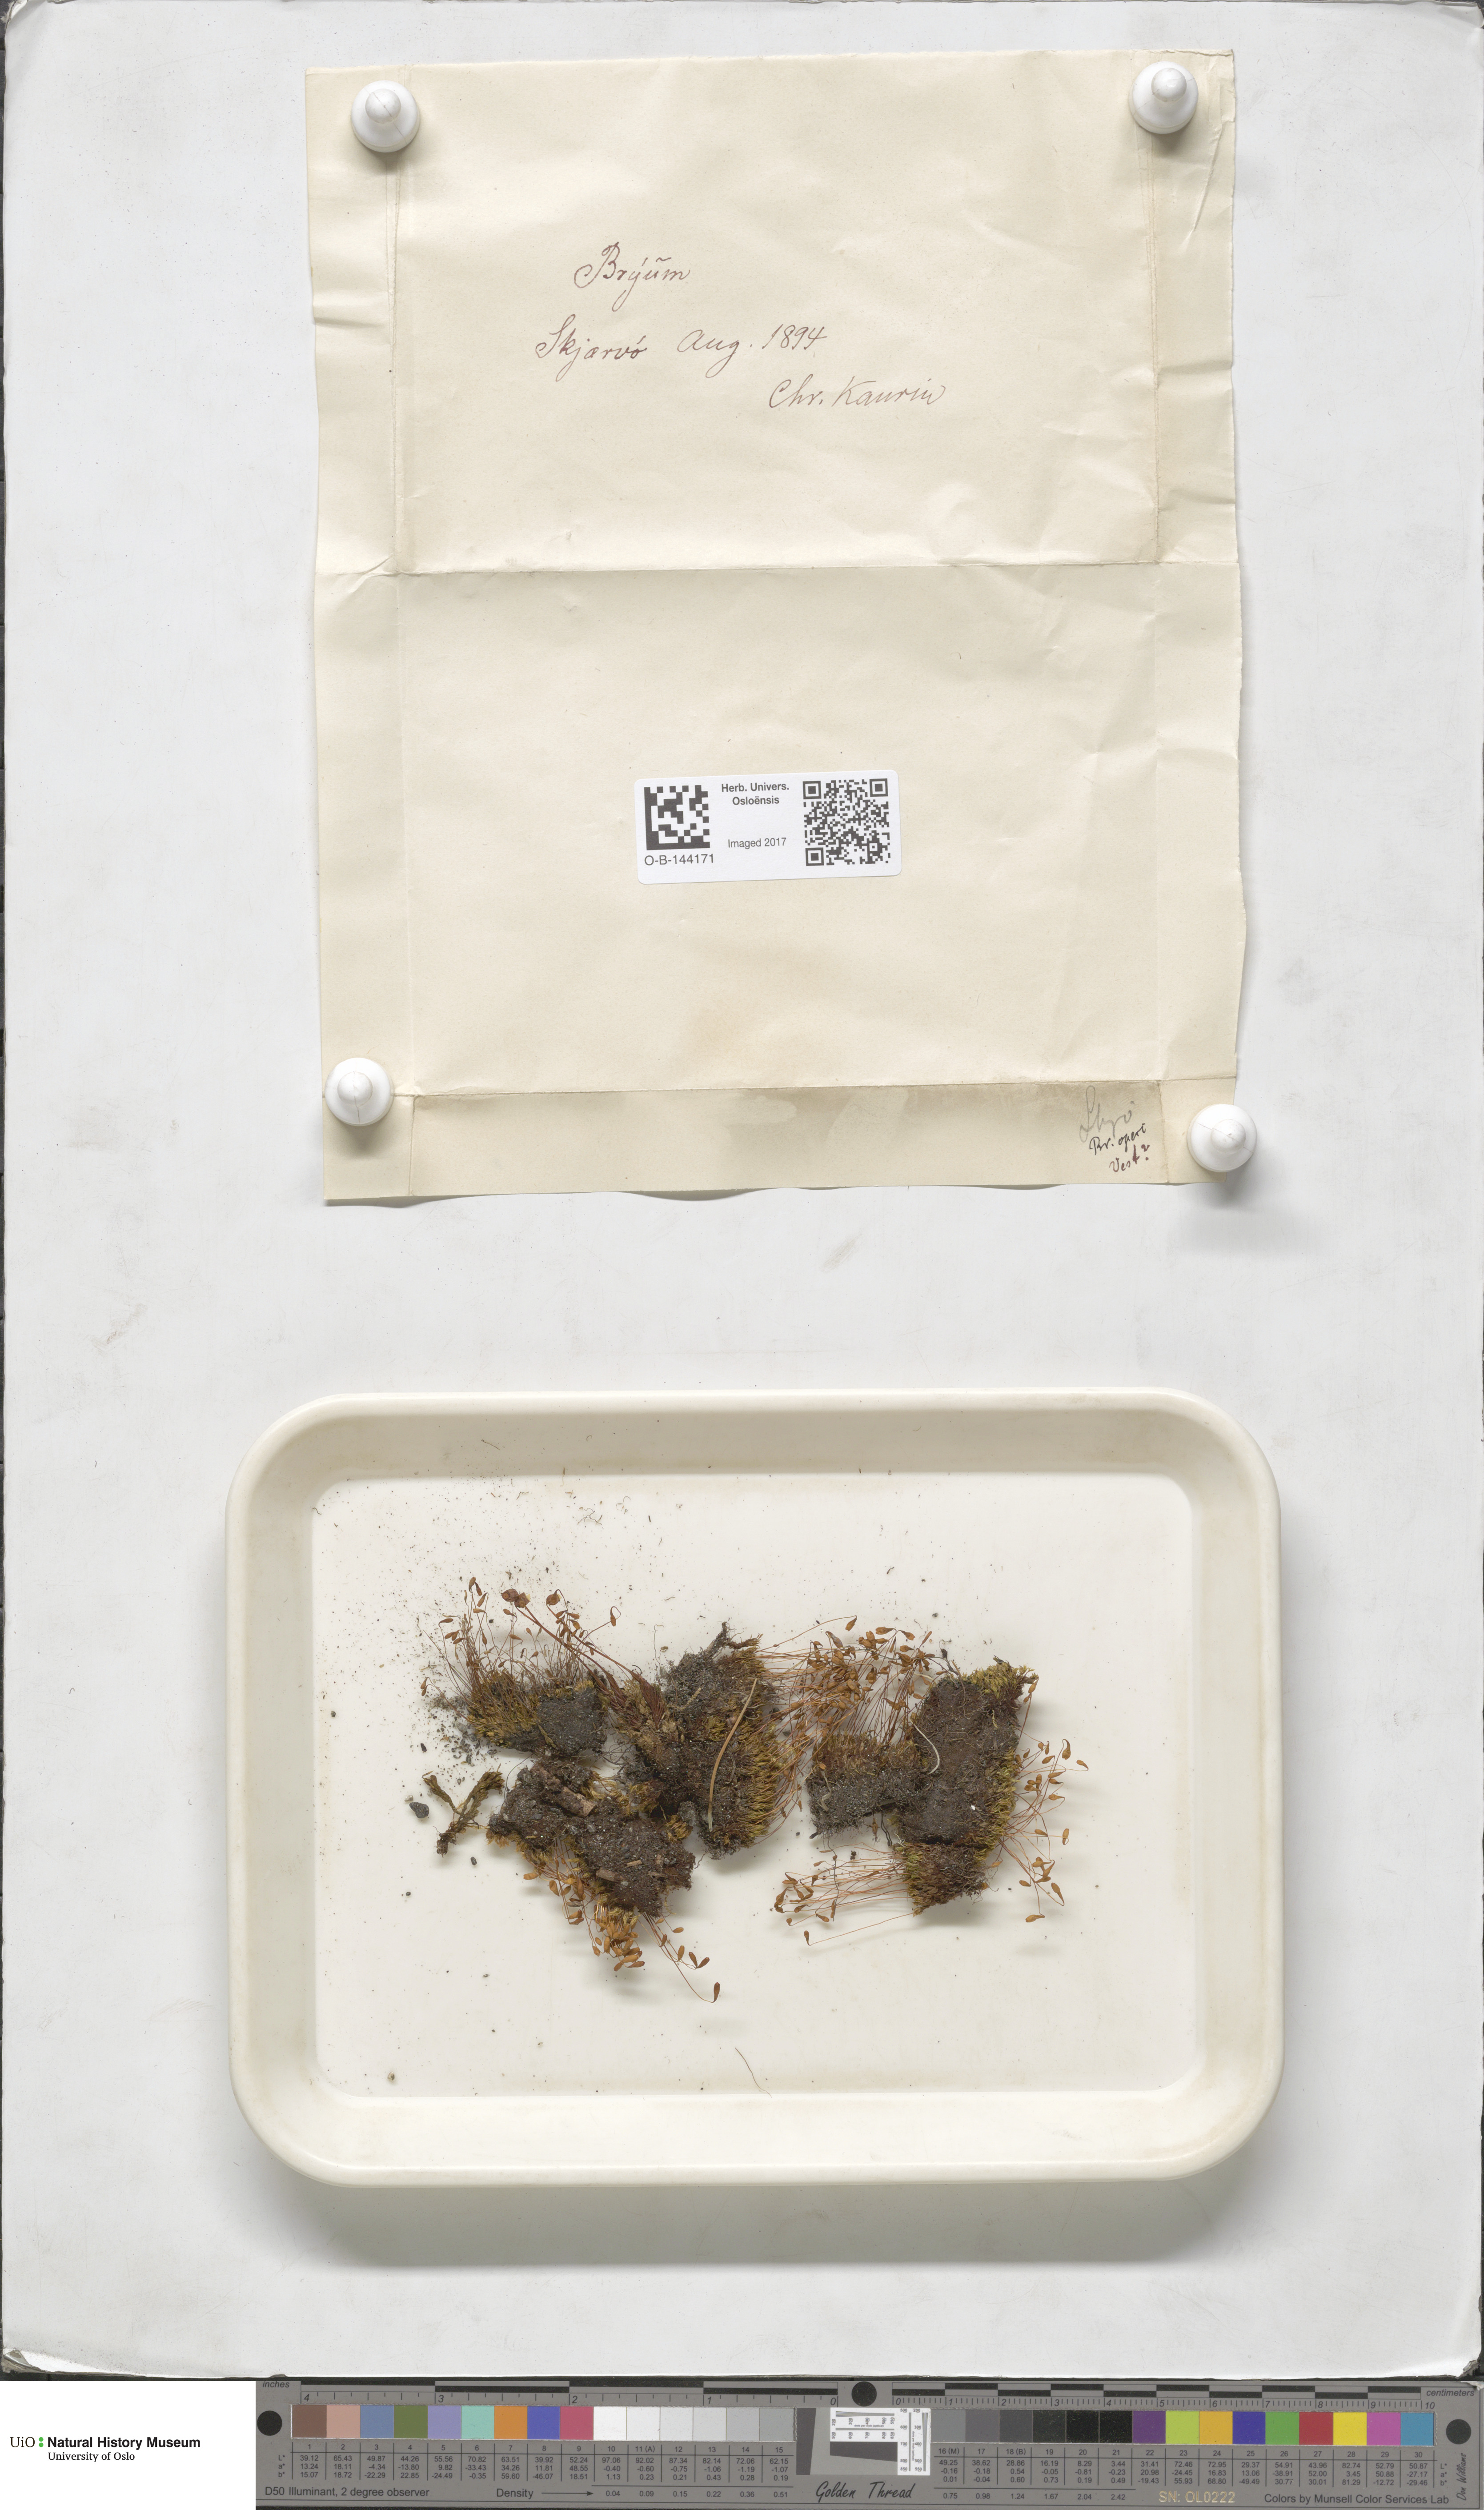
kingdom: Plantae
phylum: Bryophyta
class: Bryopsida
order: Bryales
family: Bryaceae
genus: Bryum
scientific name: Bryum
